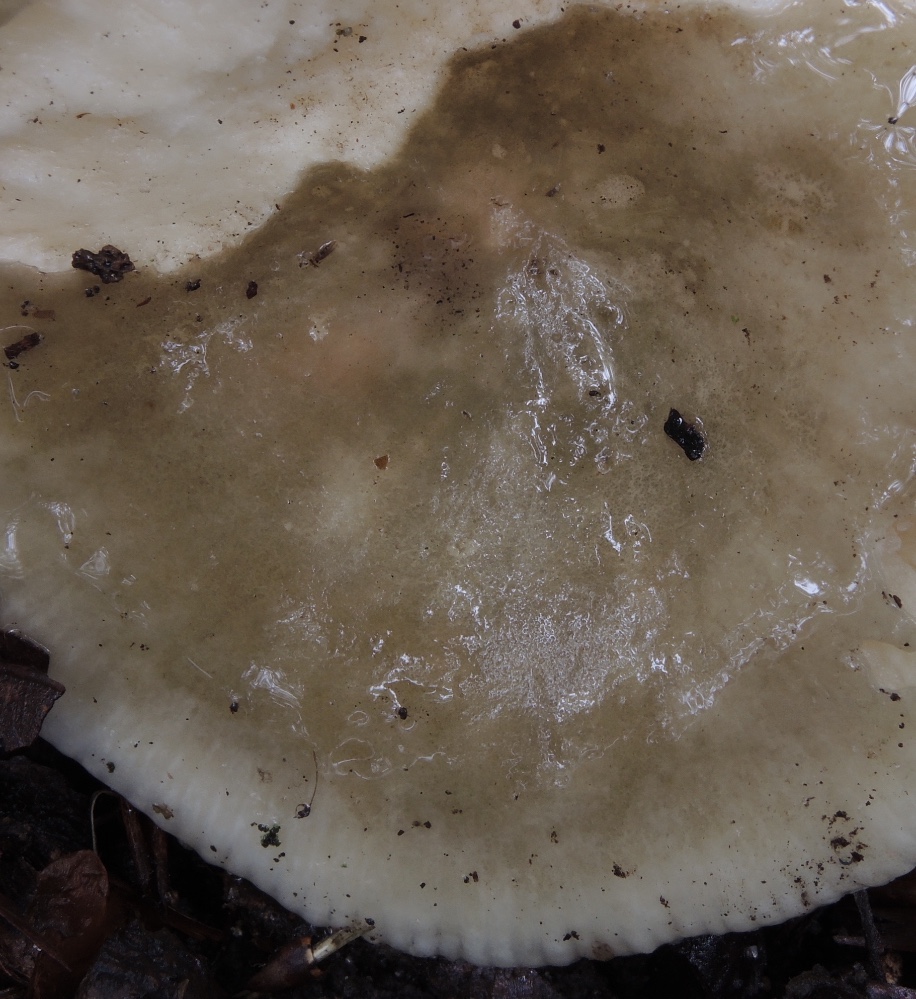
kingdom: Fungi
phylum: Basidiomycota
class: Agaricomycetes
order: Russulales
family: Russulaceae
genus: Russula
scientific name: Russula faustiana
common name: olivengrå skørhat
